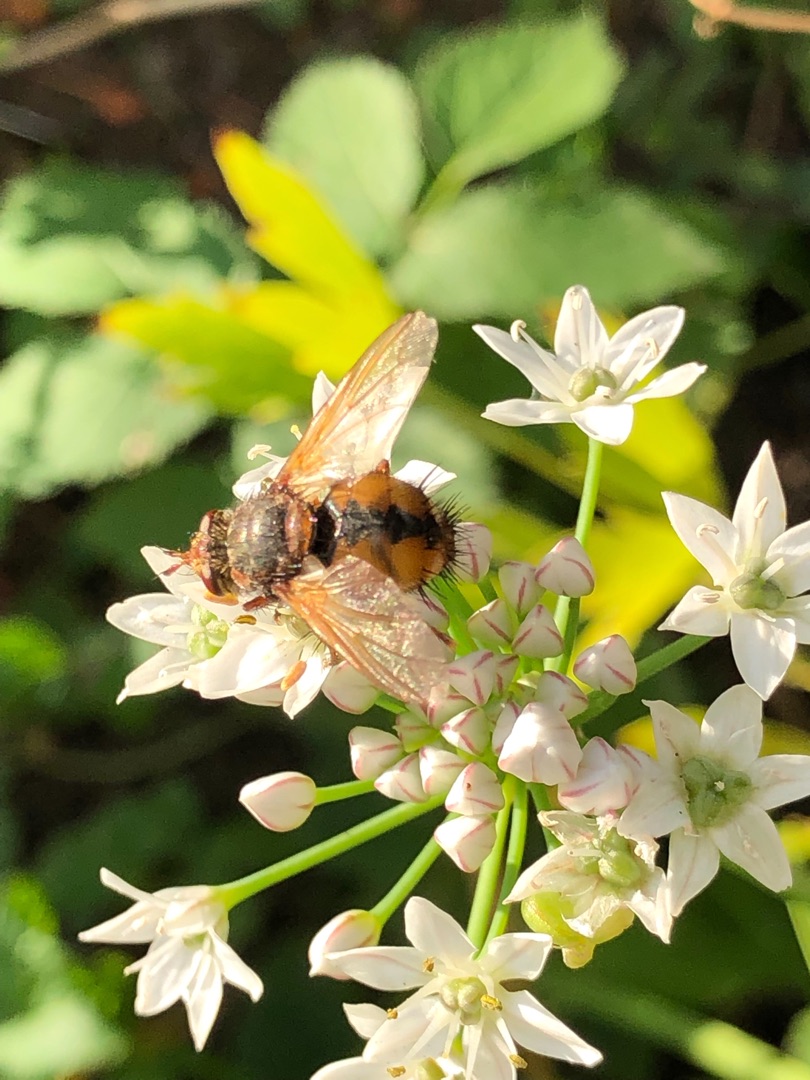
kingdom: Animalia
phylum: Arthropoda
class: Insecta
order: Diptera
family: Tachinidae
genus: Tachina
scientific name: Tachina fera
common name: Mellemfluen oskar
